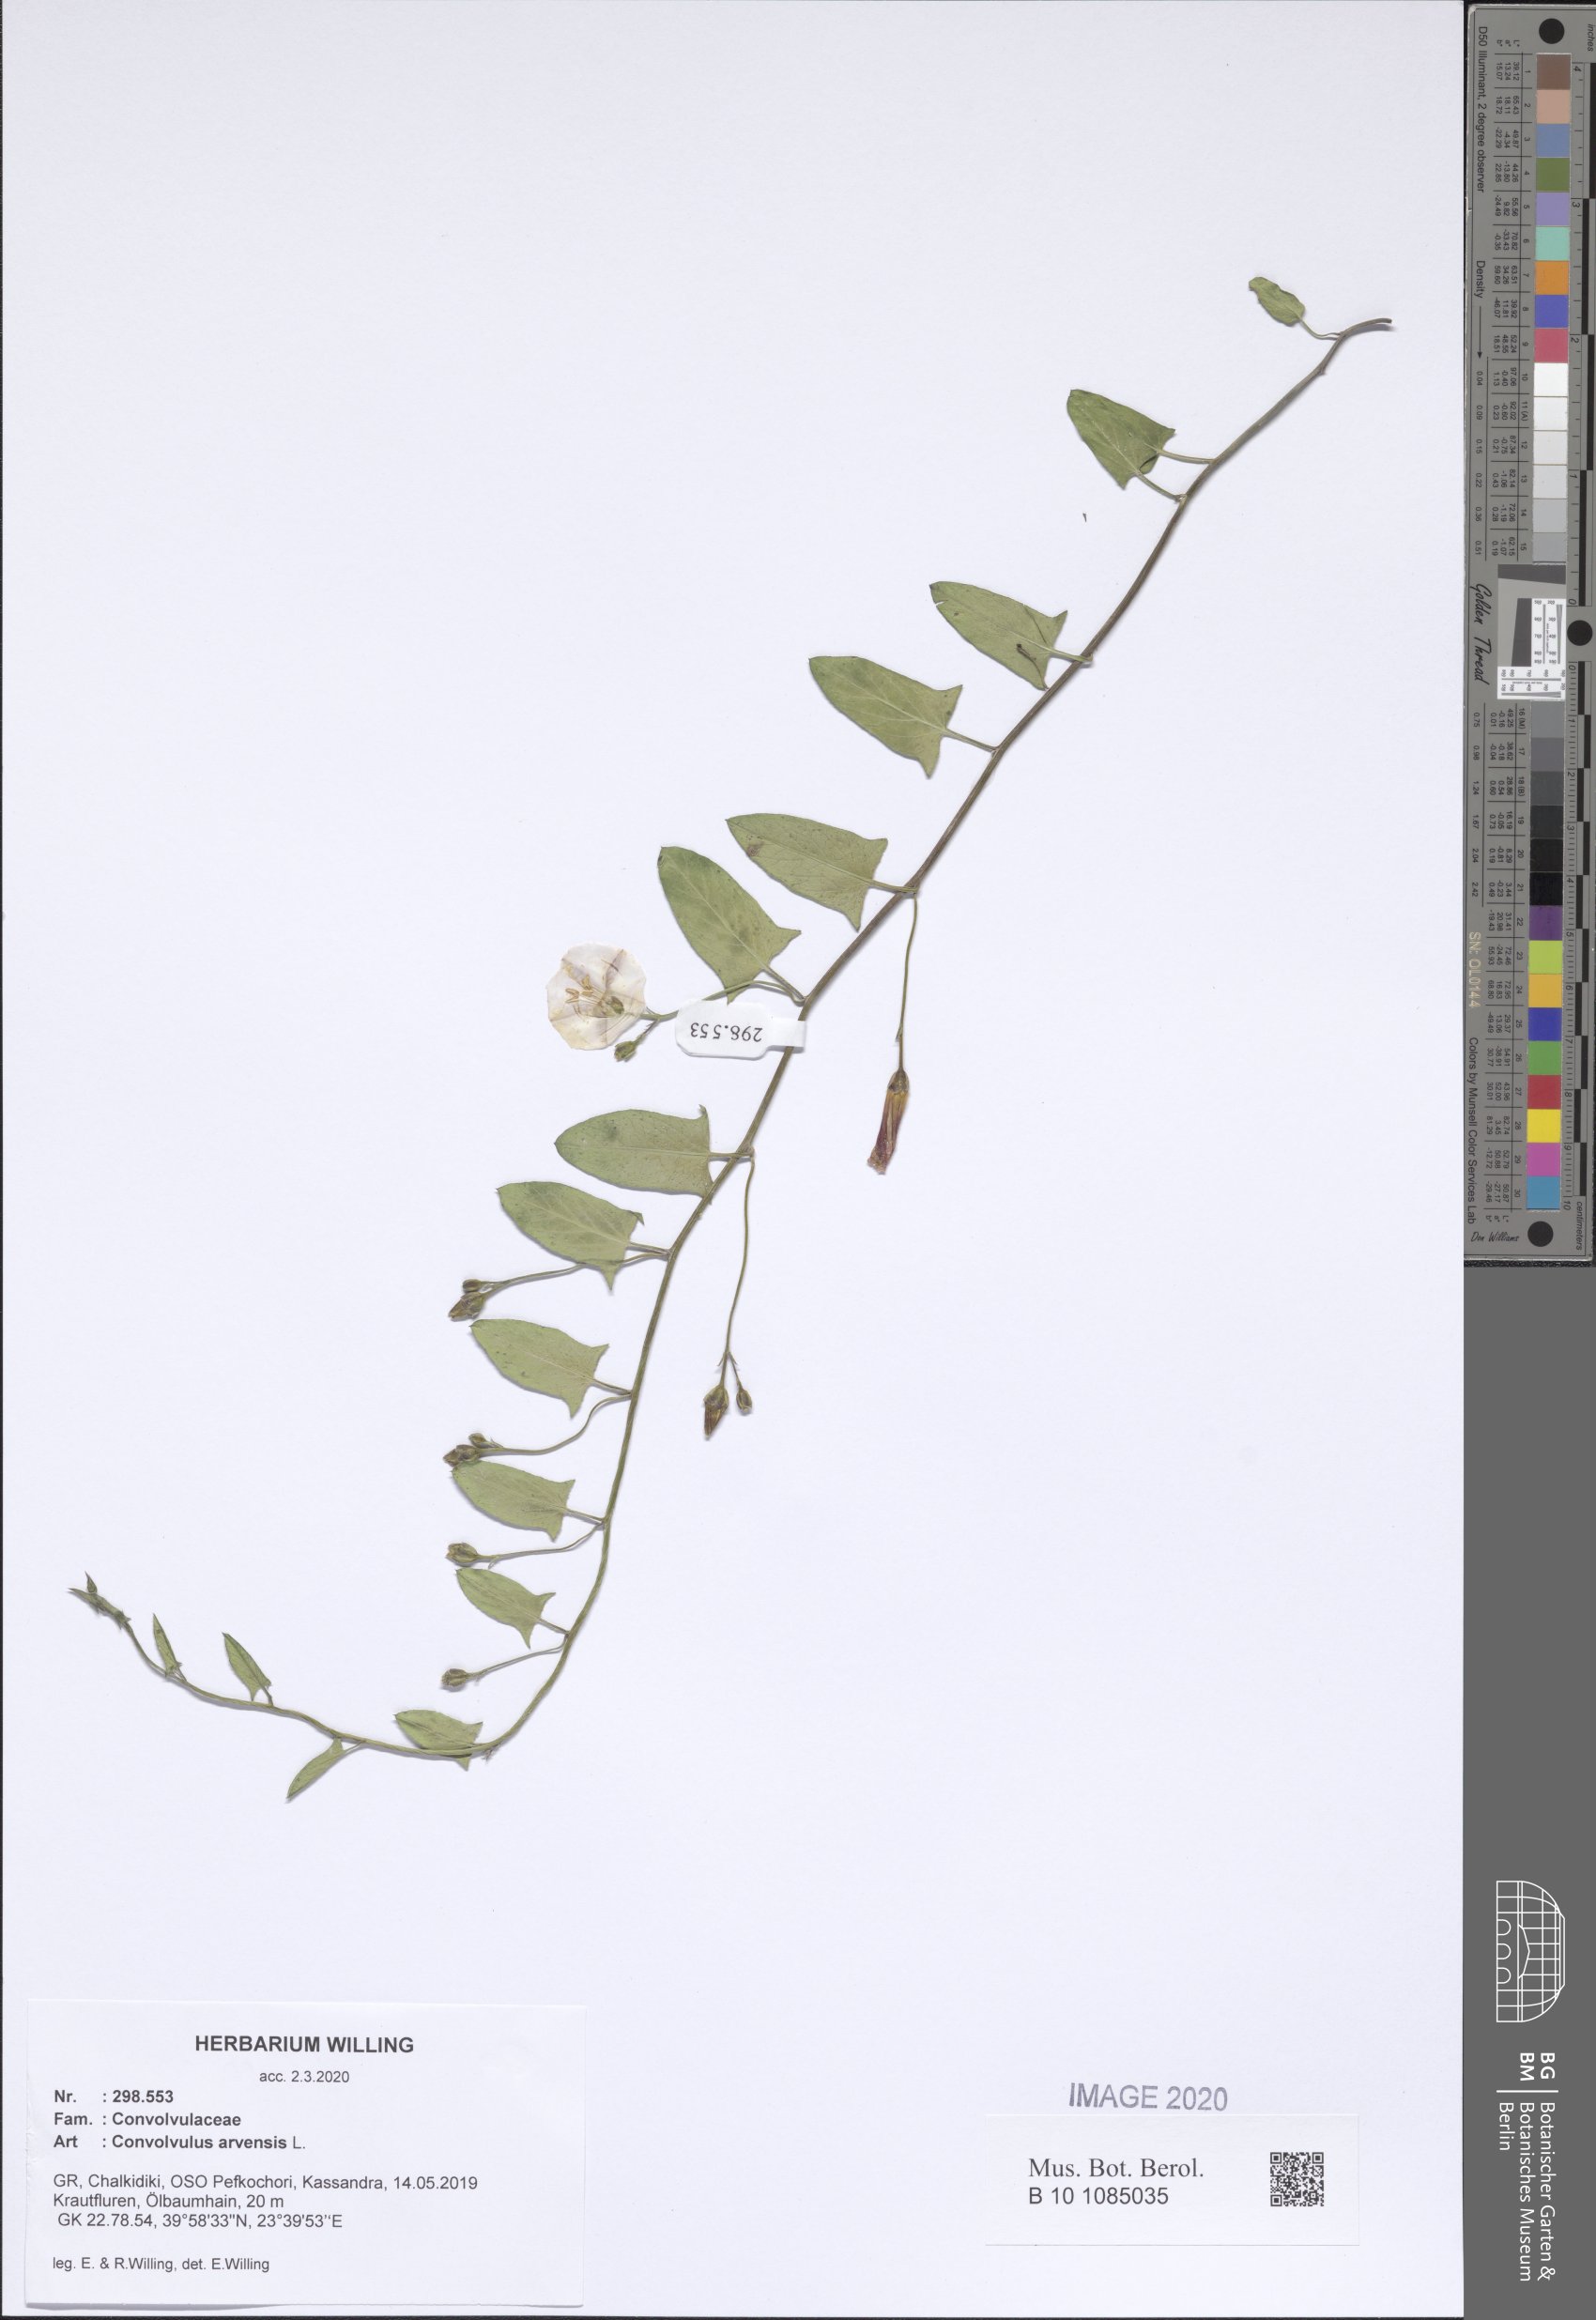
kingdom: Plantae
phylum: Tracheophyta
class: Magnoliopsida
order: Solanales
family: Convolvulaceae
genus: Convolvulus
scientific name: Convolvulus arvensis
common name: Field bindweed
